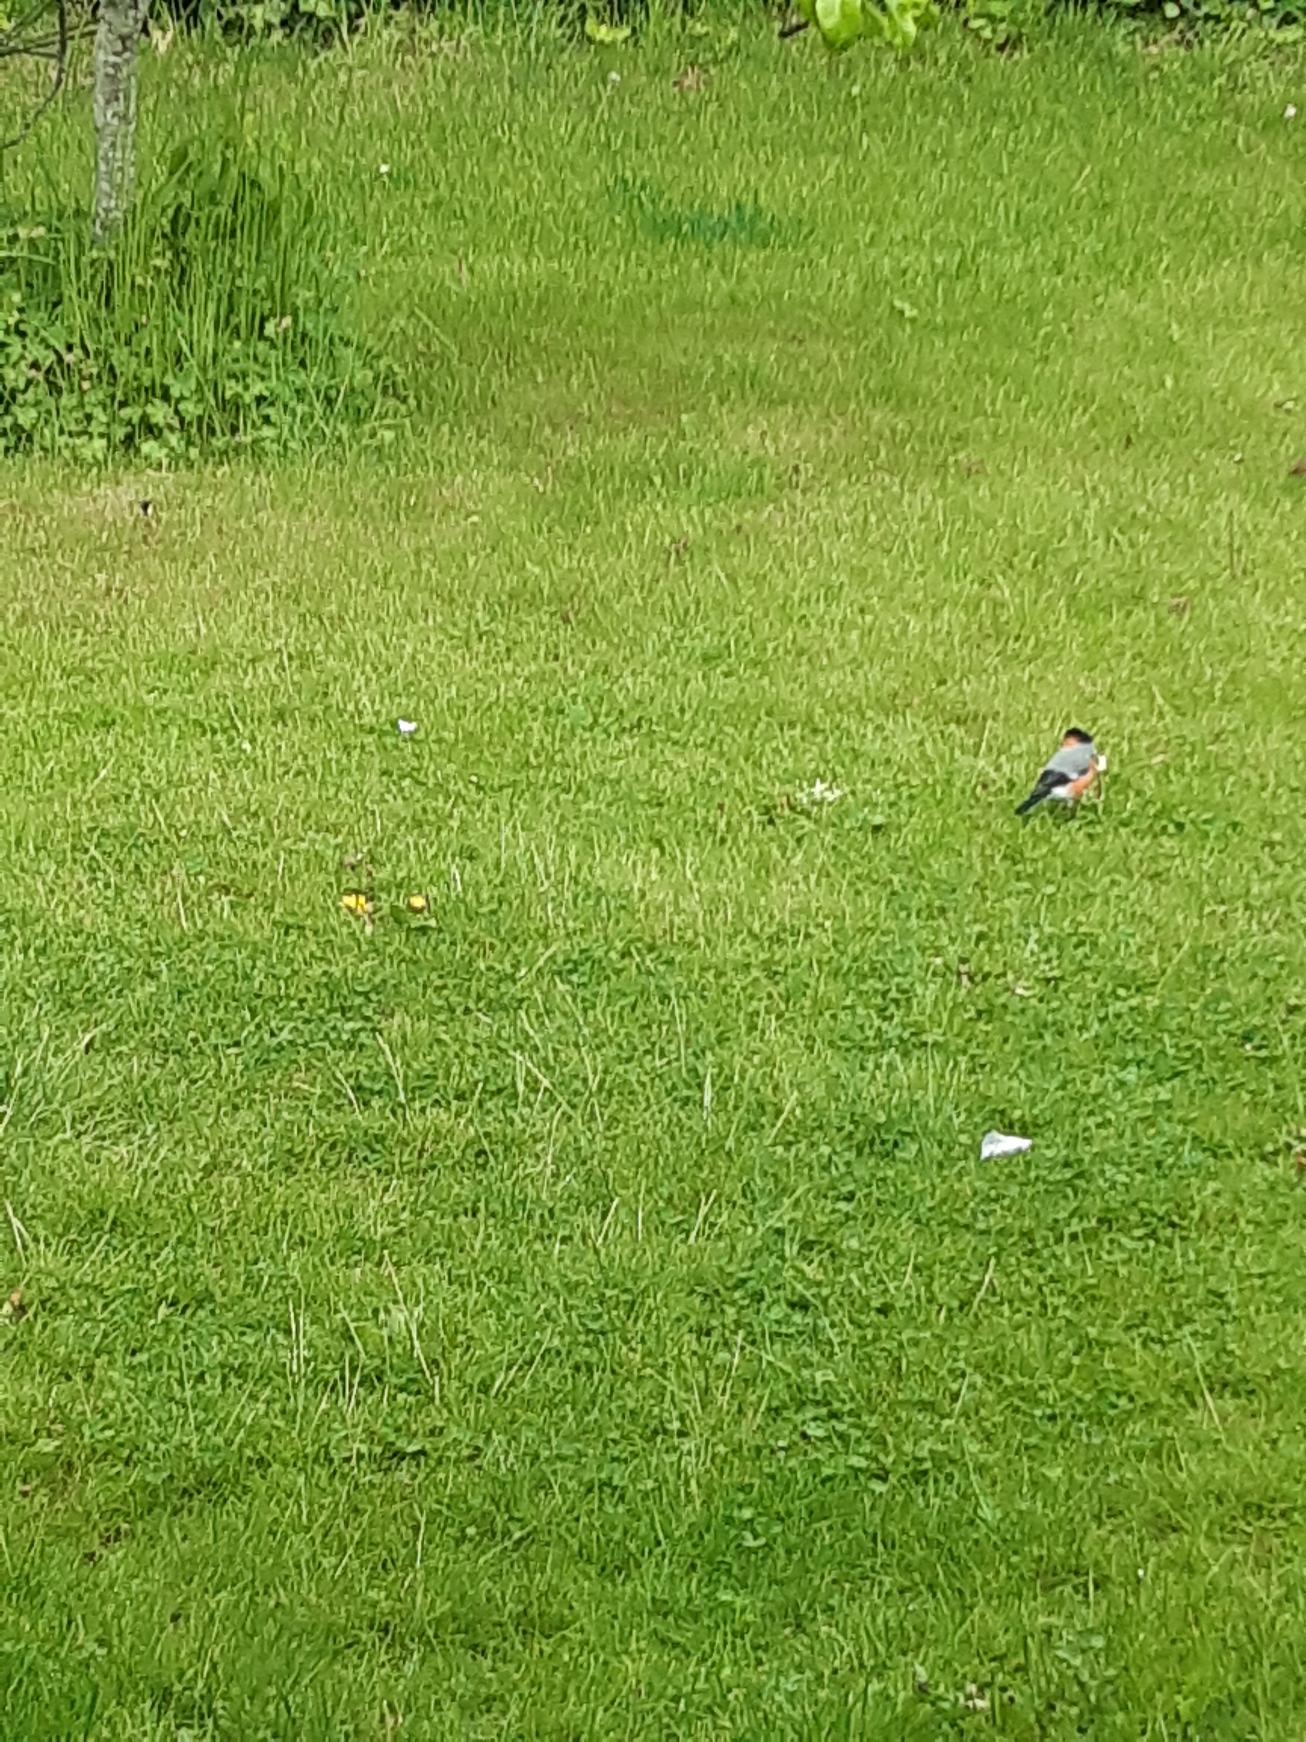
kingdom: Animalia
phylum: Chordata
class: Aves
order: Passeriformes
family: Fringillidae
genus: Pyrrhula
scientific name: Pyrrhula pyrrhula
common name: Dompap
